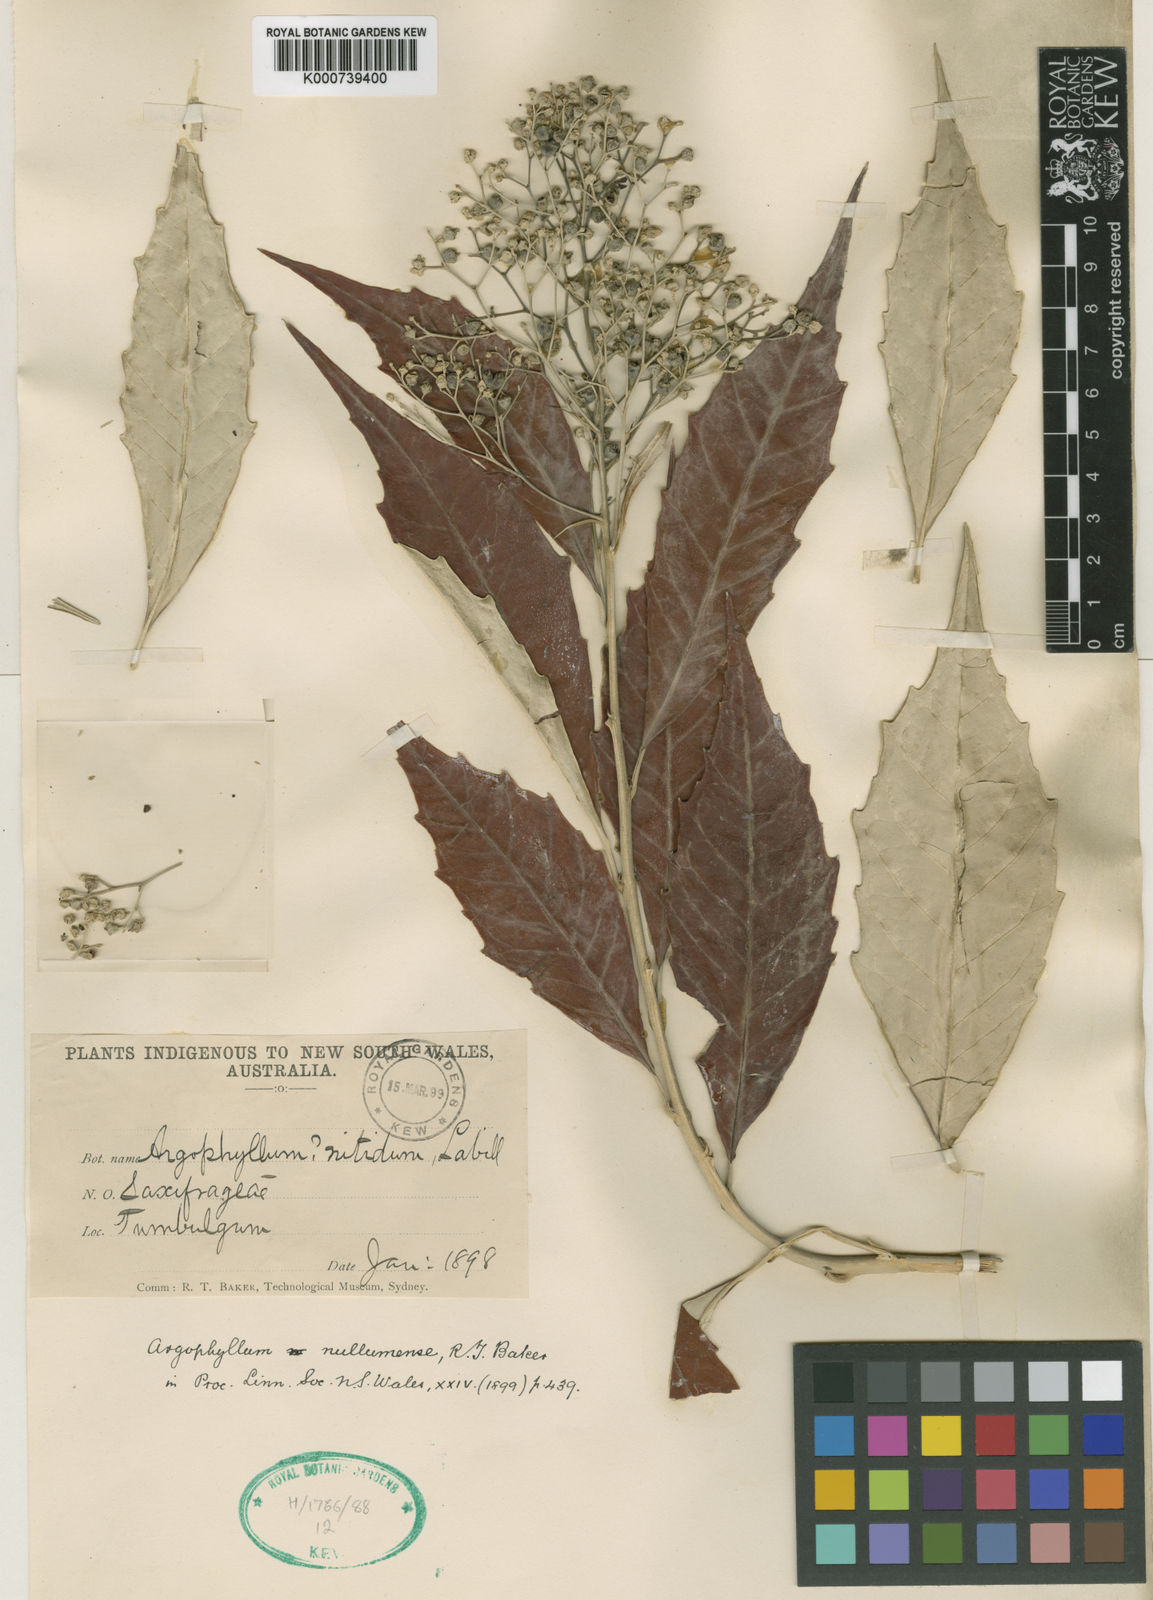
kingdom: Plantae
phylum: Tracheophyta
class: Magnoliopsida
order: Asterales
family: Argophyllaceae
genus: Argophyllum
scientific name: Argophyllum nullumense
